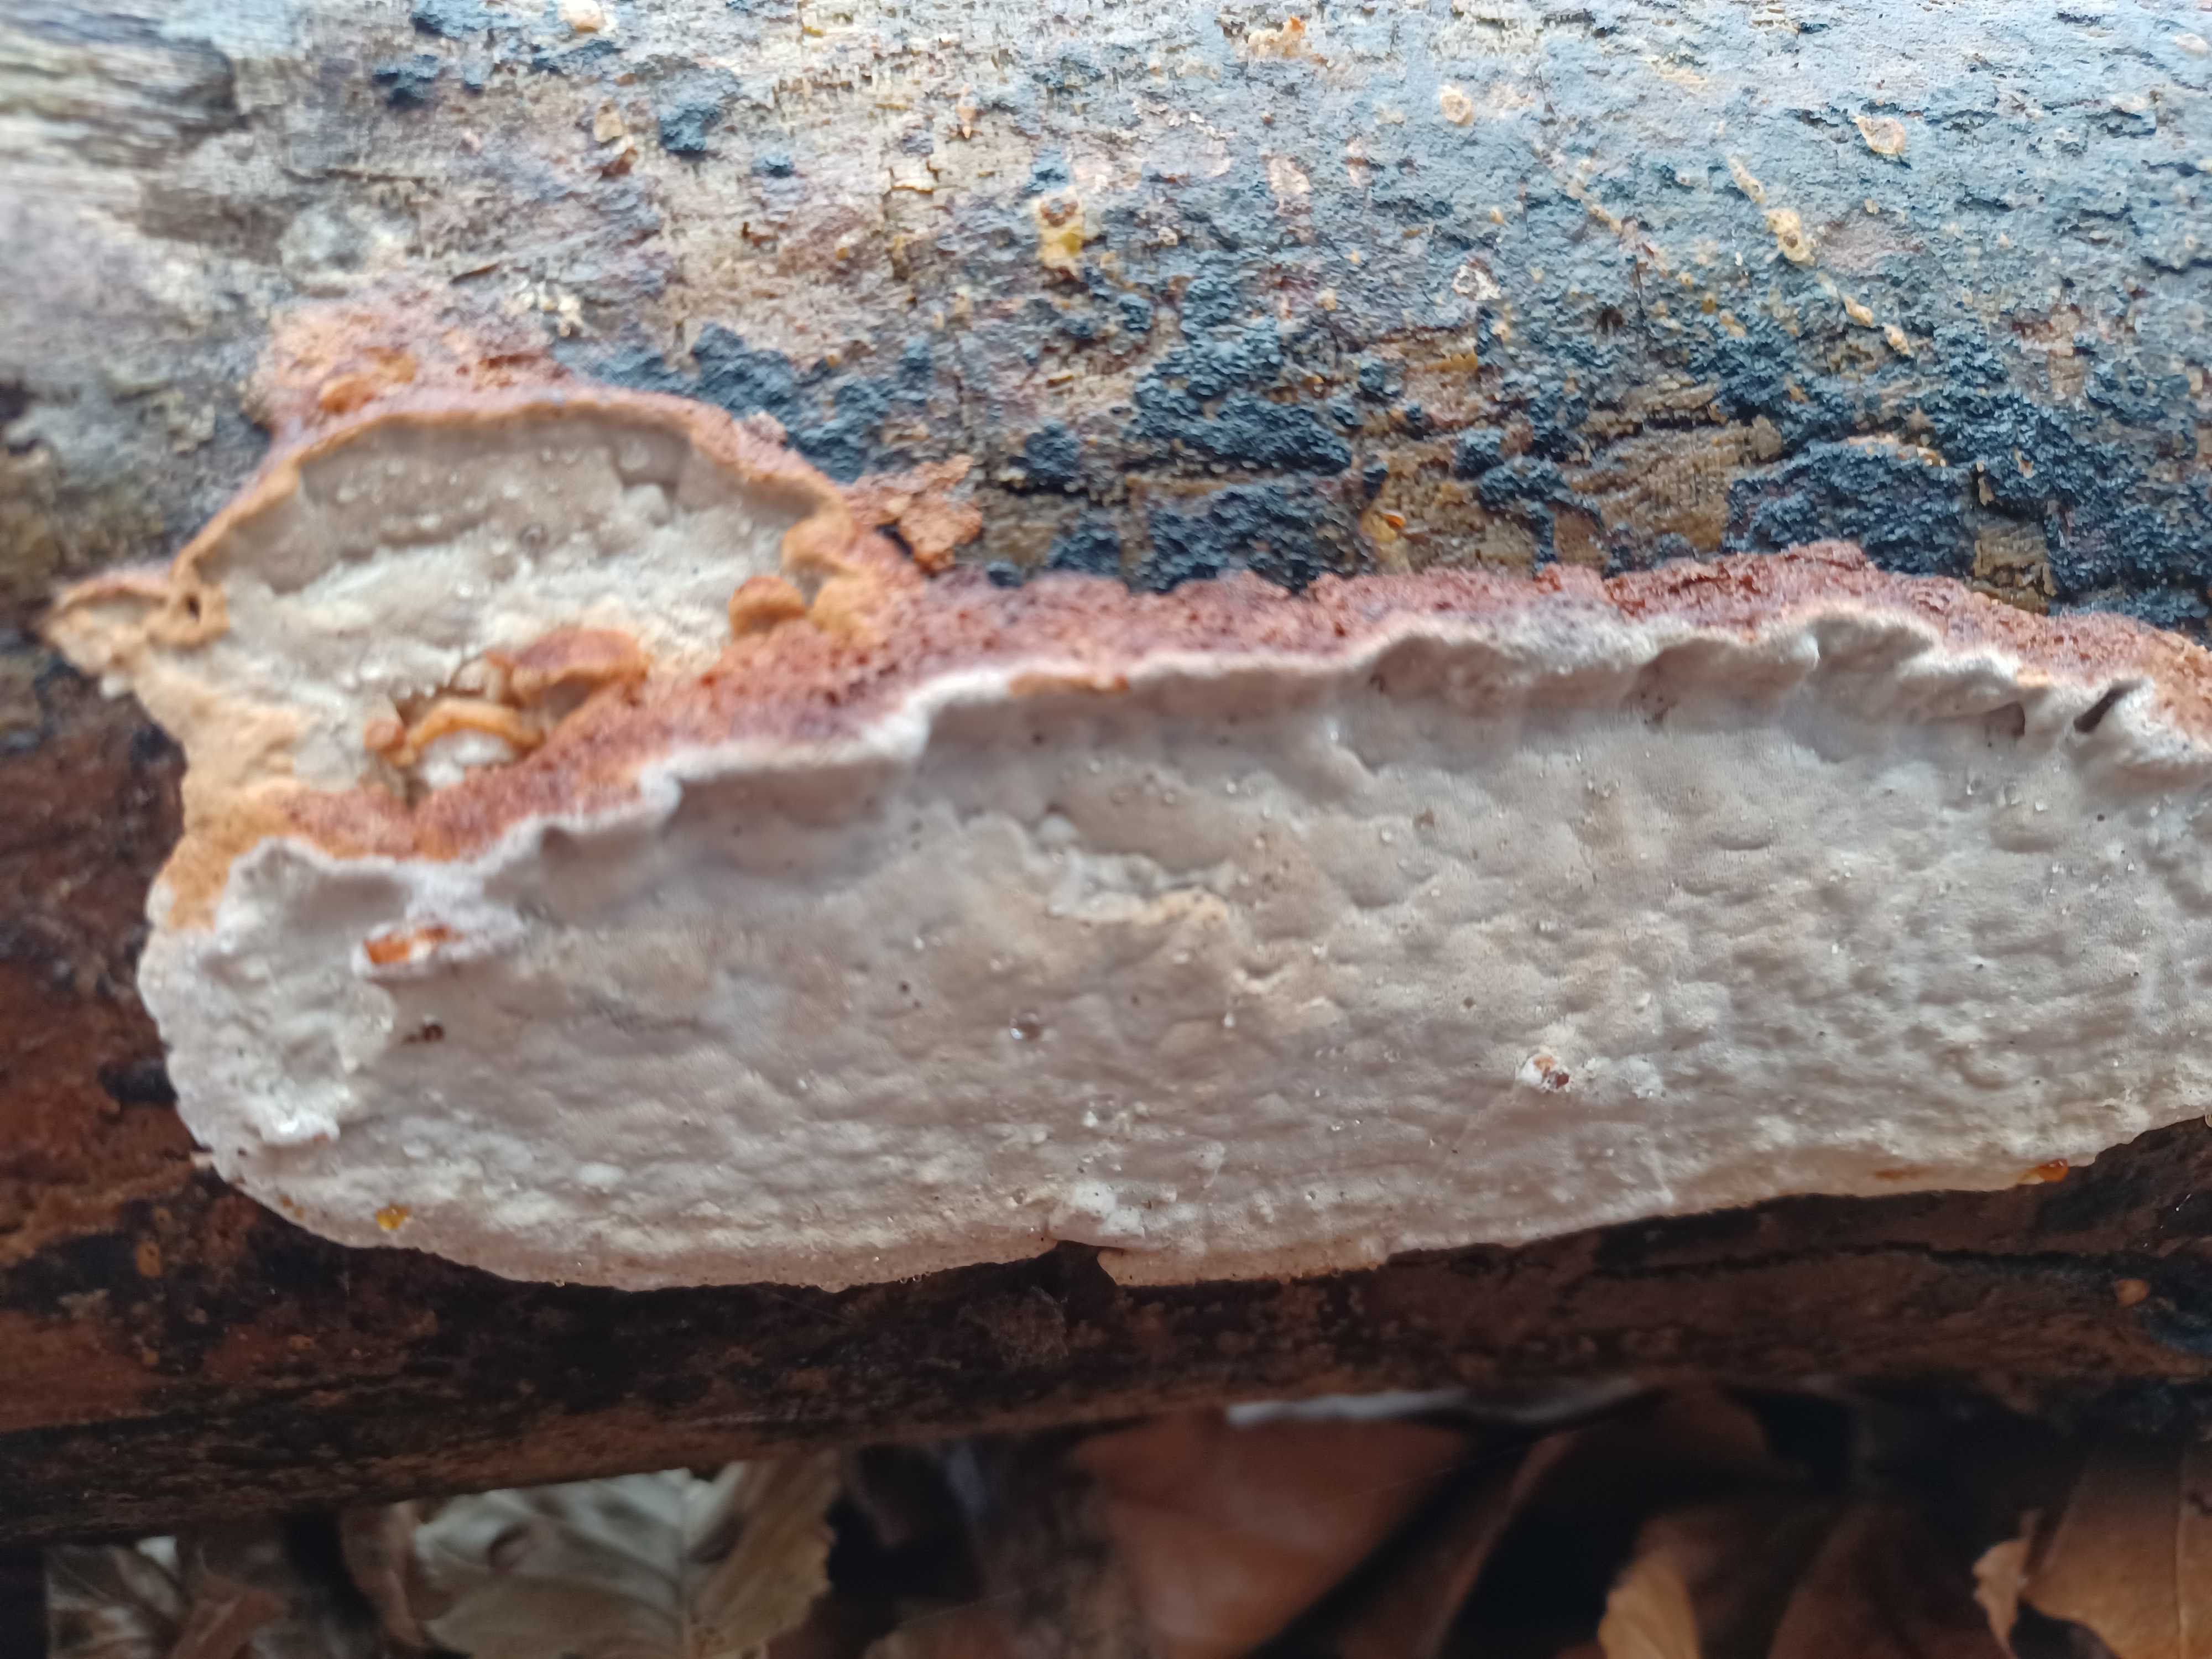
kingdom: Fungi
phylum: Basidiomycota
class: Agaricomycetes
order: Polyporales
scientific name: Polyporales
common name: poresvampordenen
